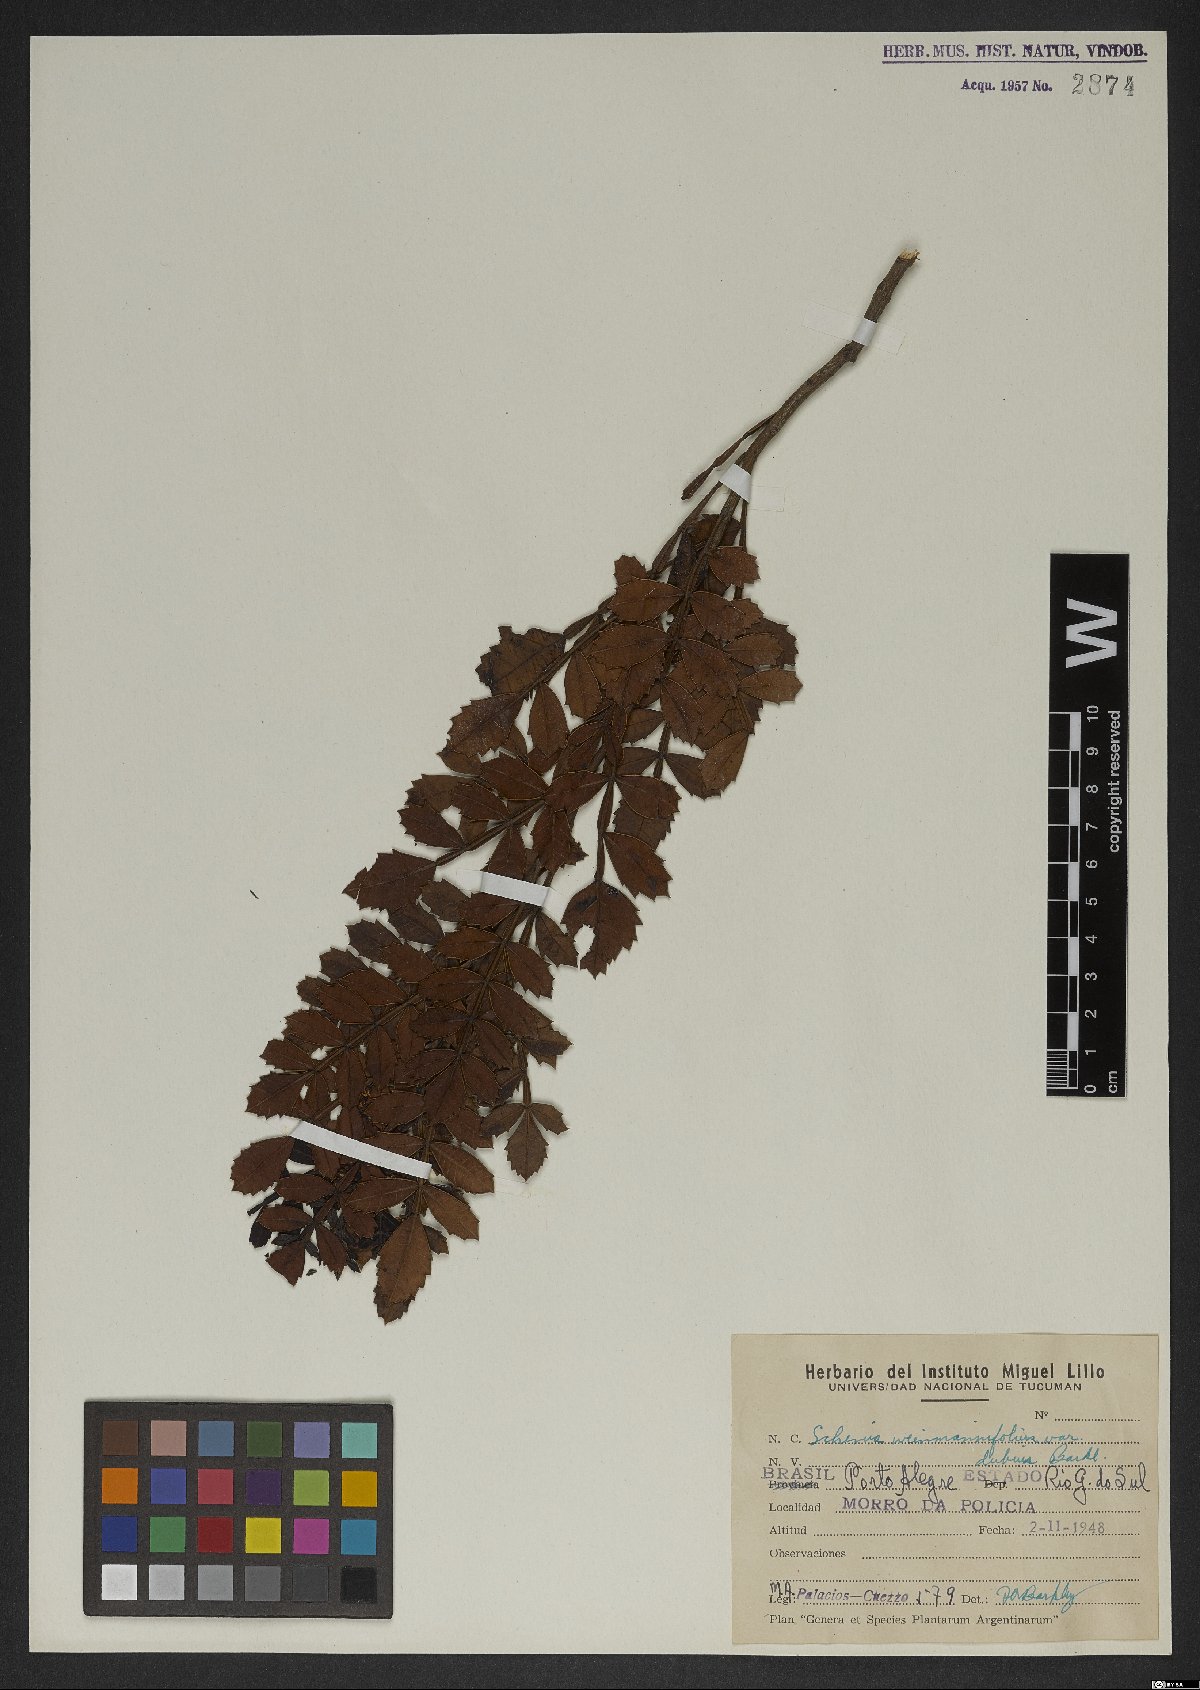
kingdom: Plantae
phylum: Tracheophyta
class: Magnoliopsida
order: Sapindales
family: Anacardiaceae
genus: Schinus
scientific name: Schinus weinmanniifolia
